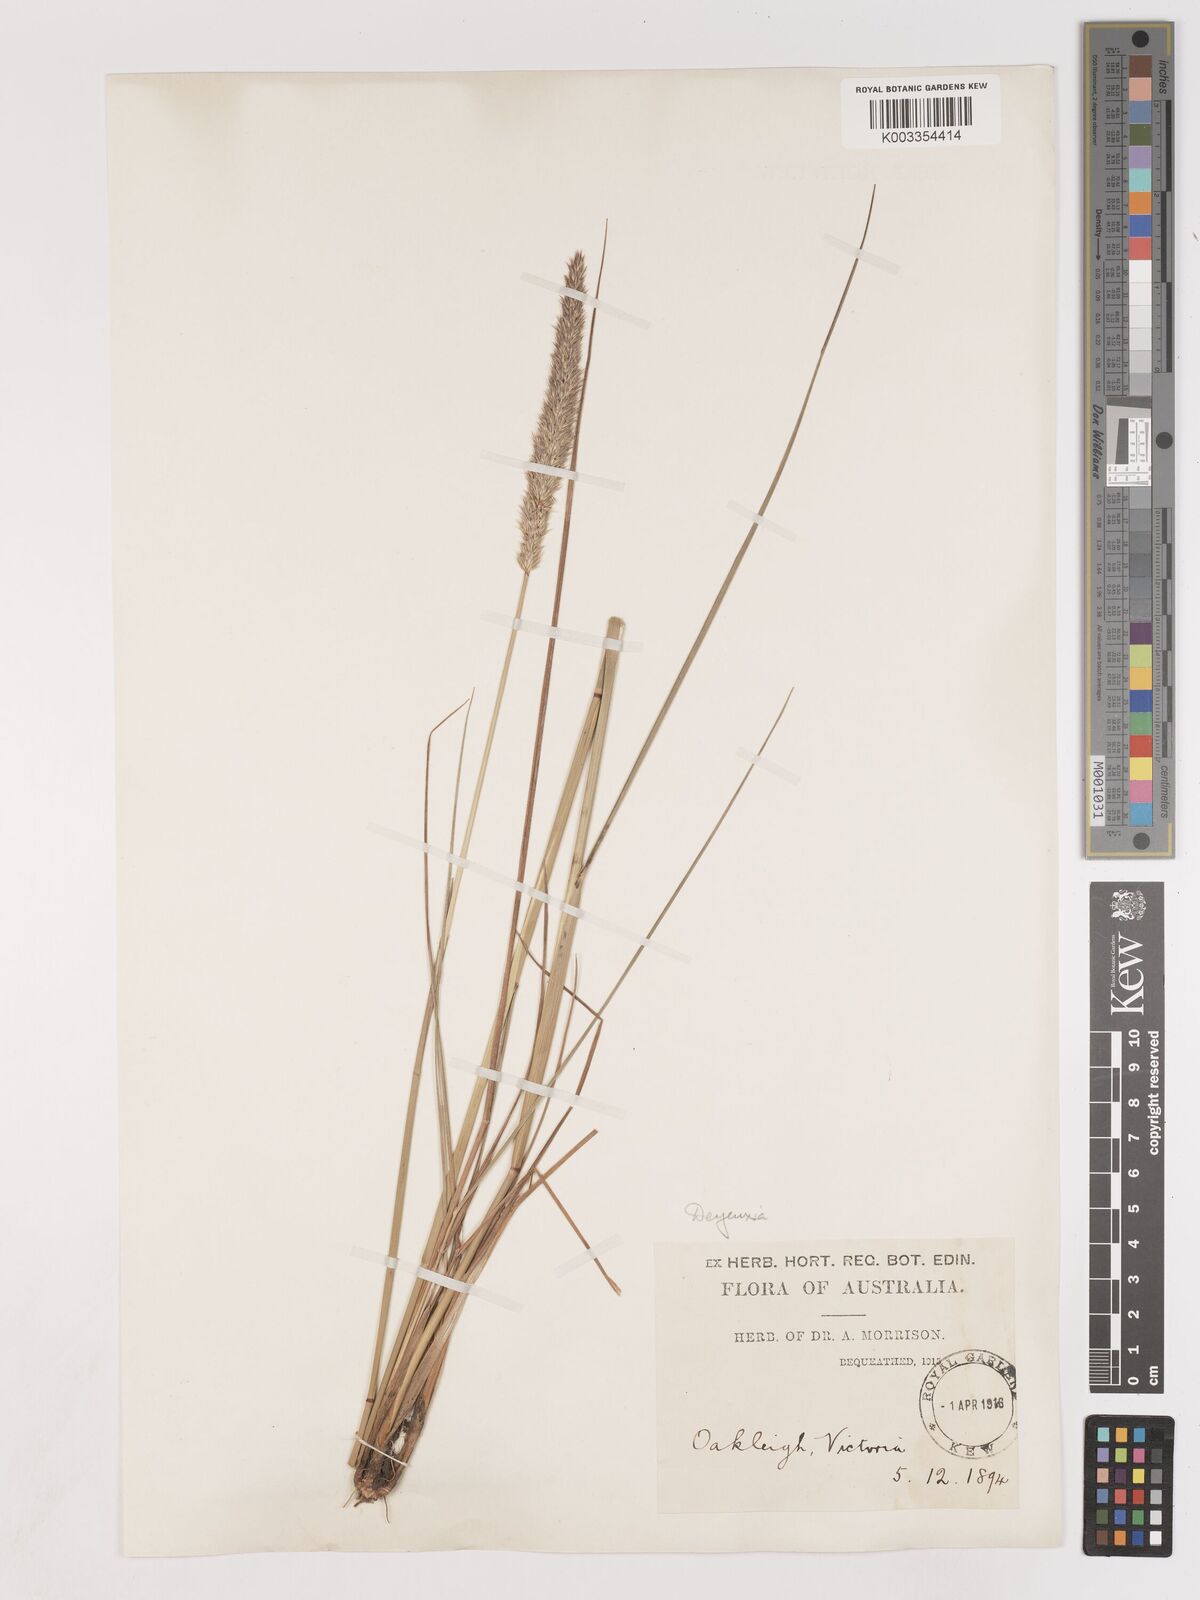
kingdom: Plantae
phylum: Tracheophyta
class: Liliopsida
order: Poales
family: Poaceae
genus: Calamagrostis
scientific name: Calamagrostis
